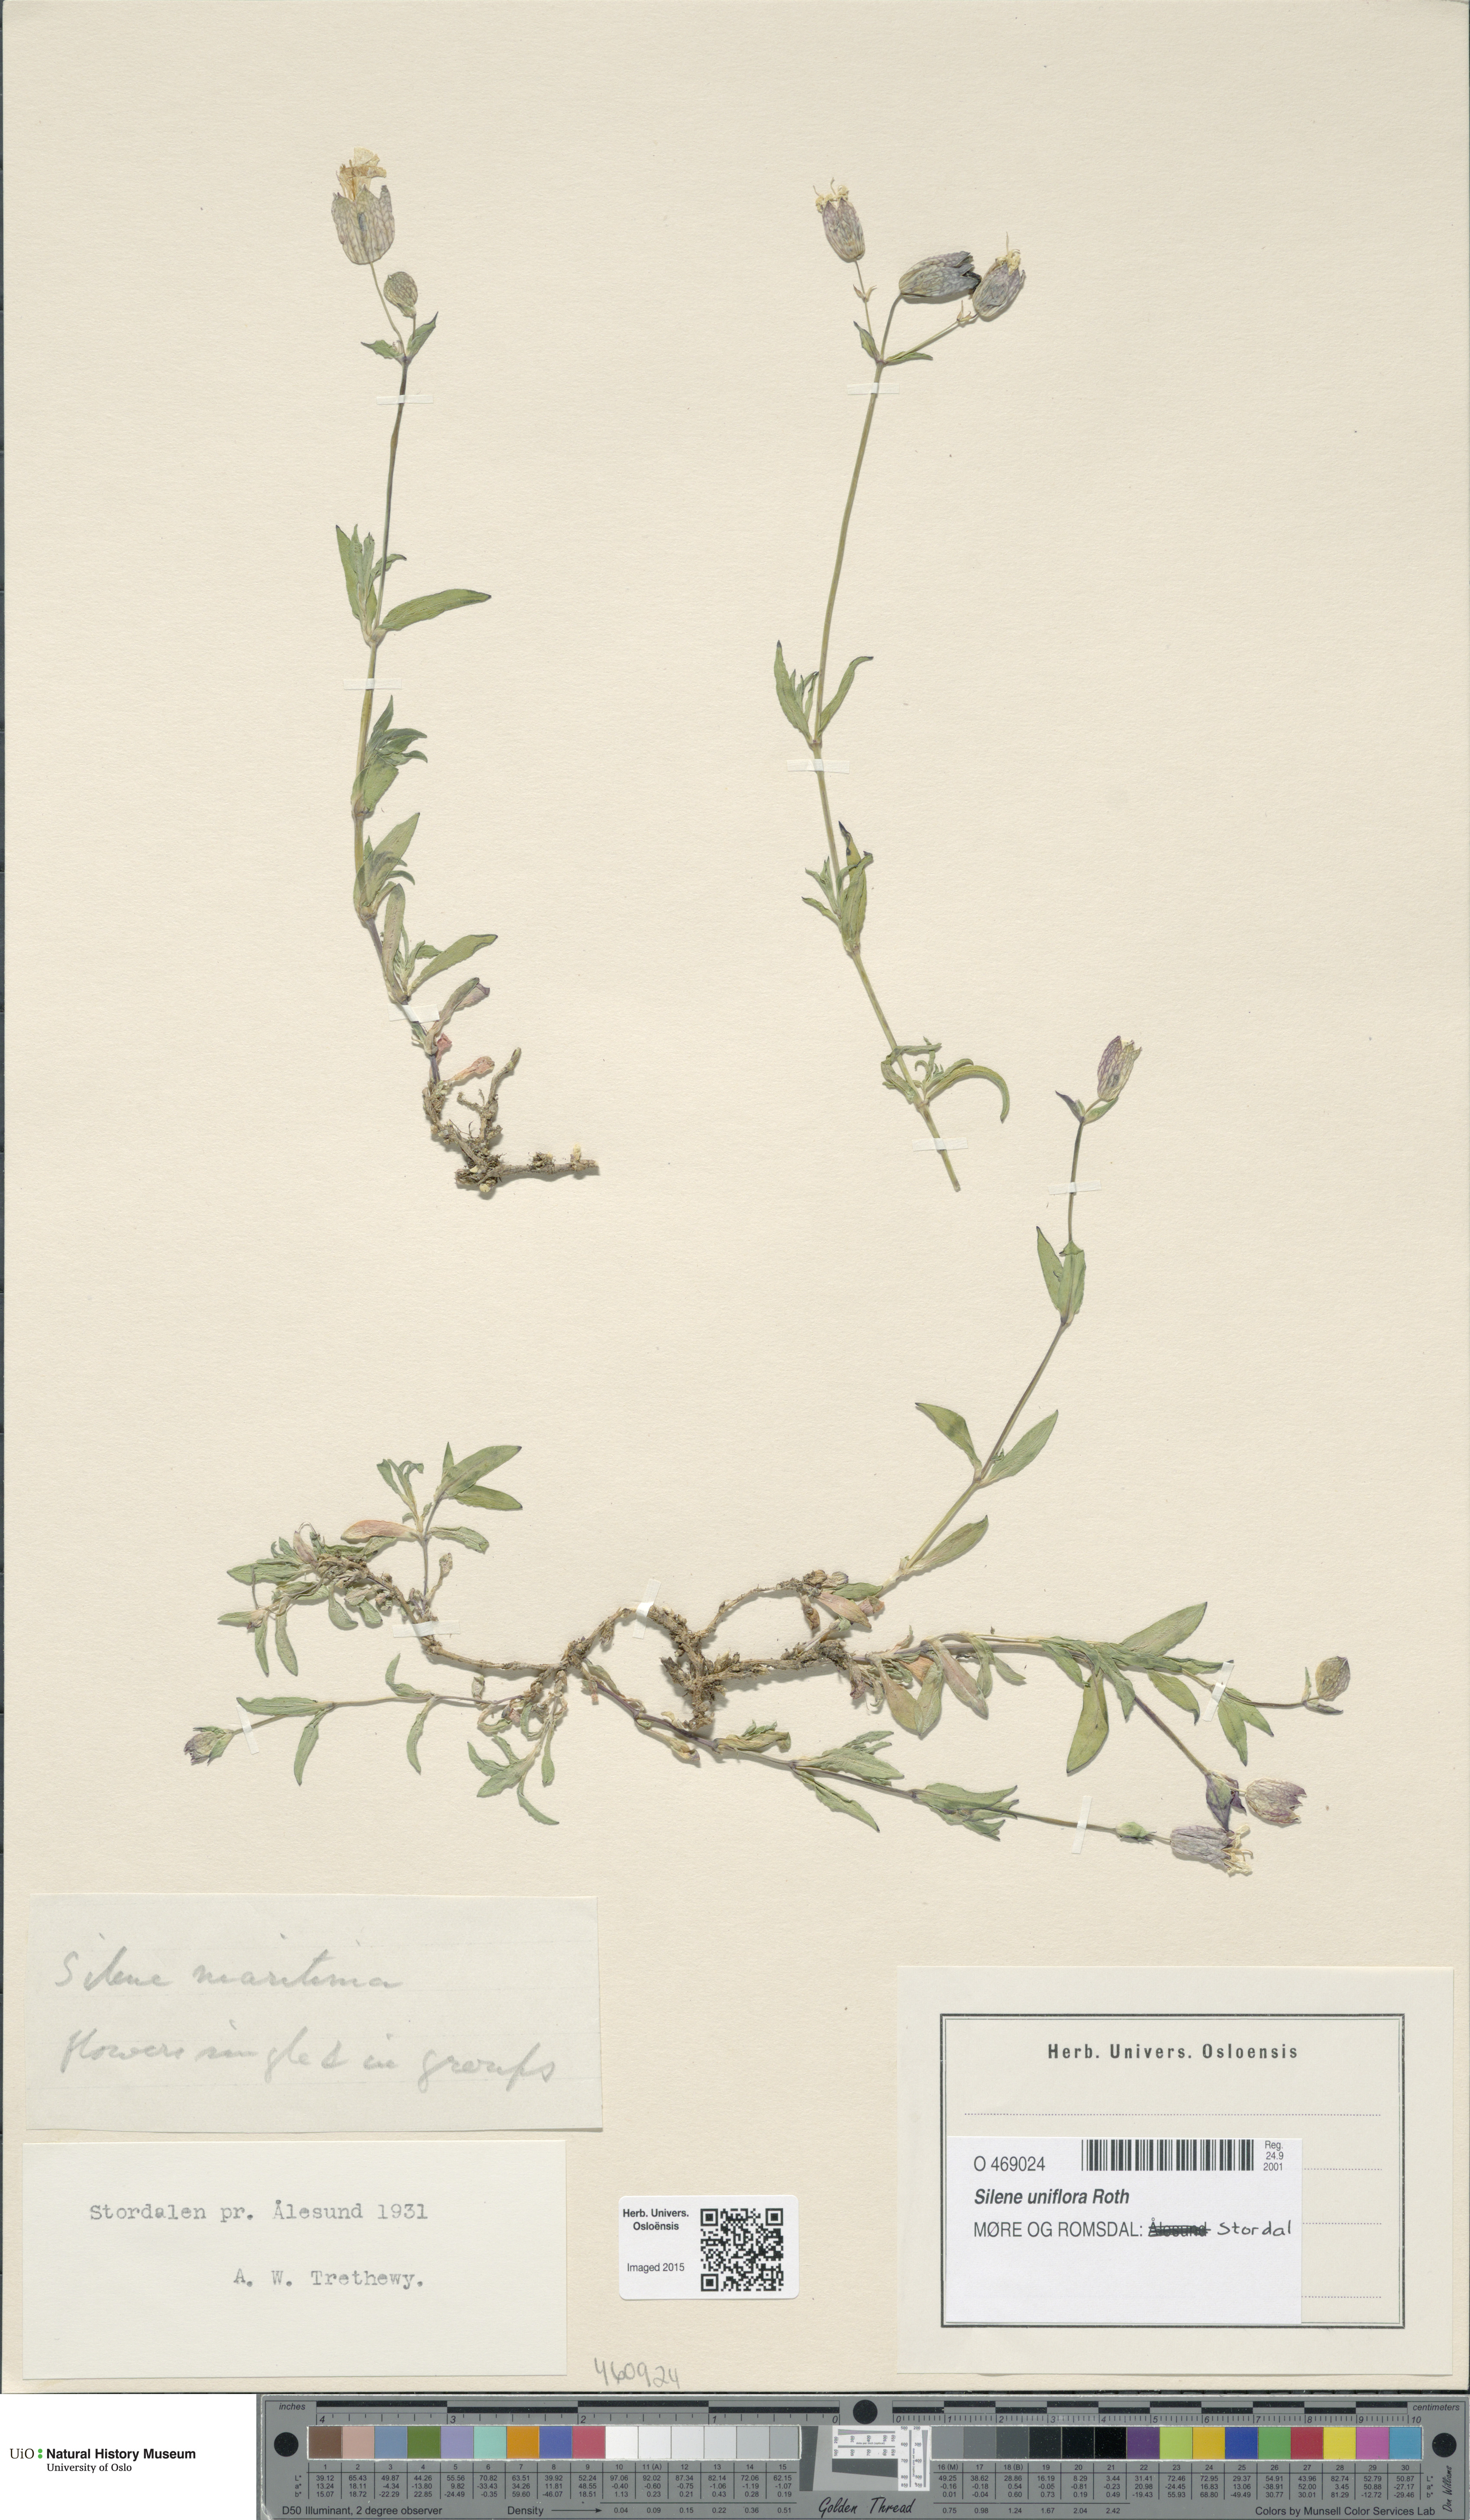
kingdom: Plantae
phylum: Tracheophyta
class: Magnoliopsida
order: Caryophyllales
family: Caryophyllaceae
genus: Silene
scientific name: Silene uniflora
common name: Sea campion
